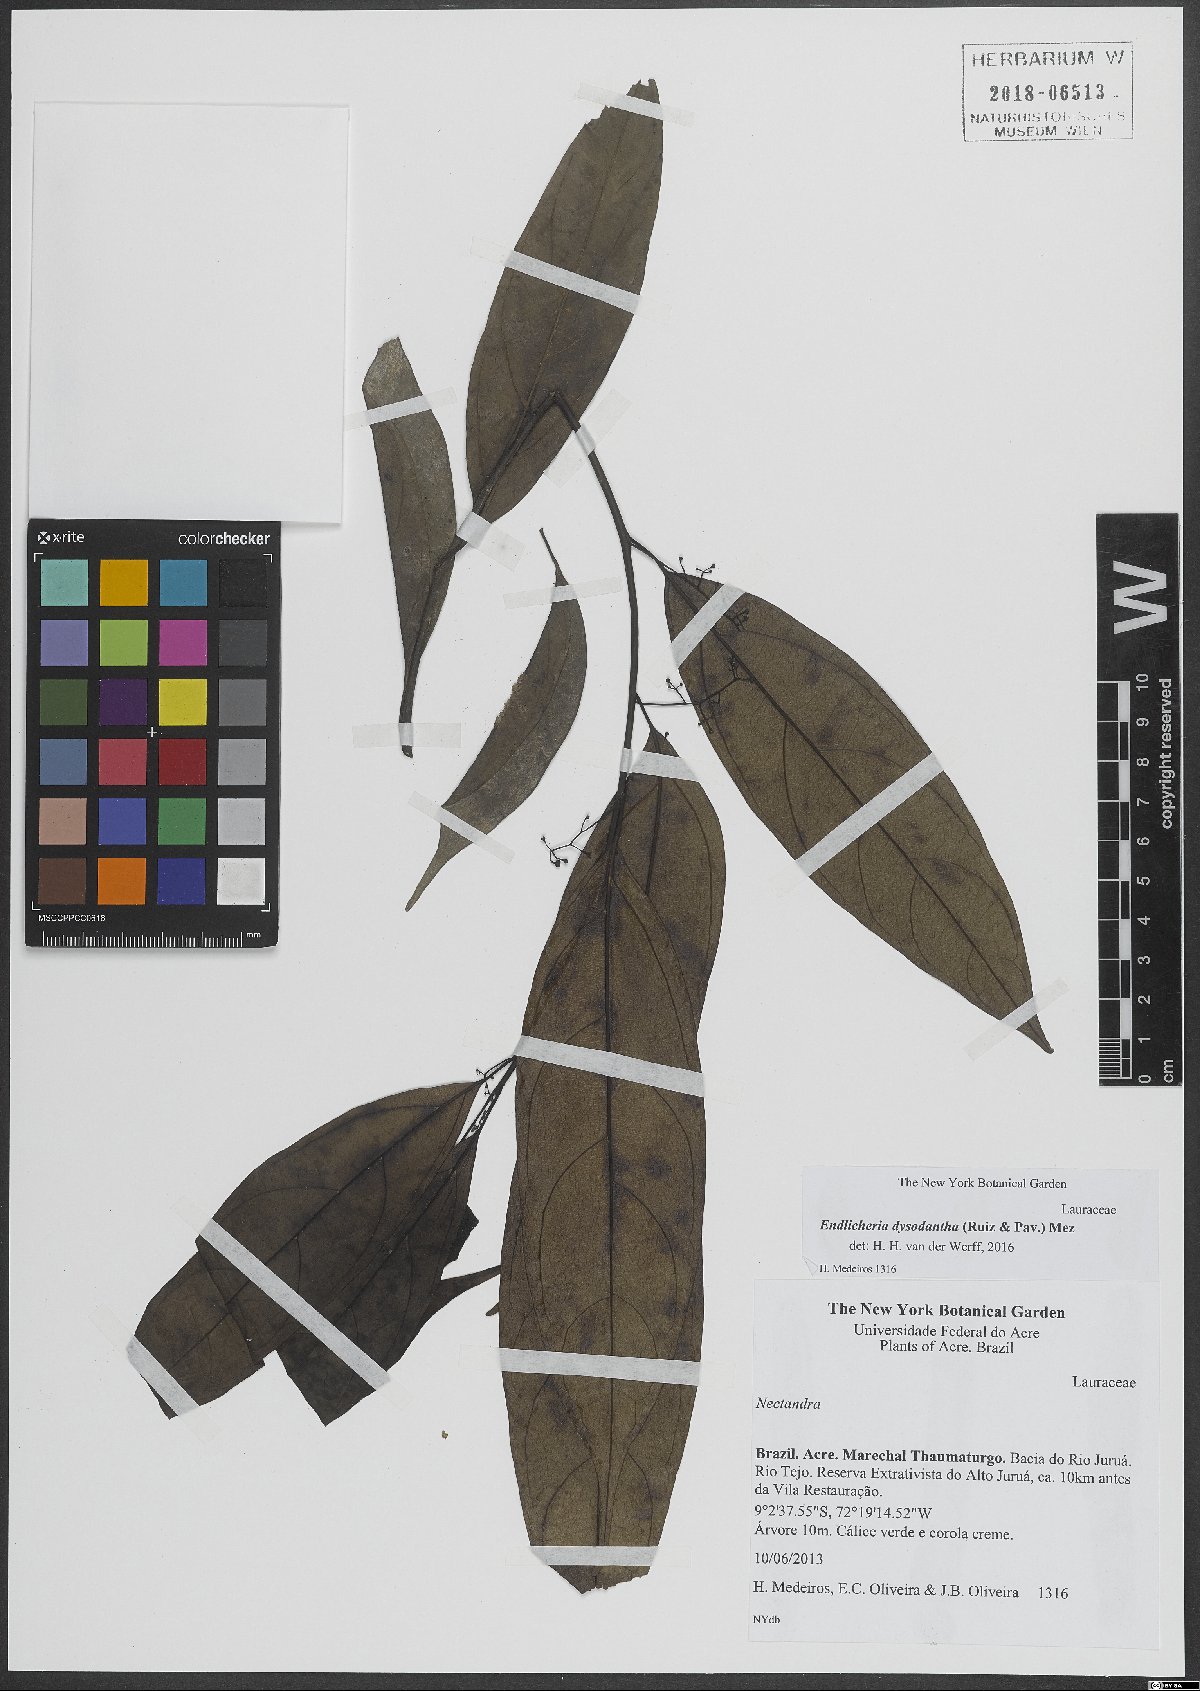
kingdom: Plantae
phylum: Tracheophyta
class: Magnoliopsida
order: Laurales
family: Lauraceae
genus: Endlicheria
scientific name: Endlicheria dysodantha
